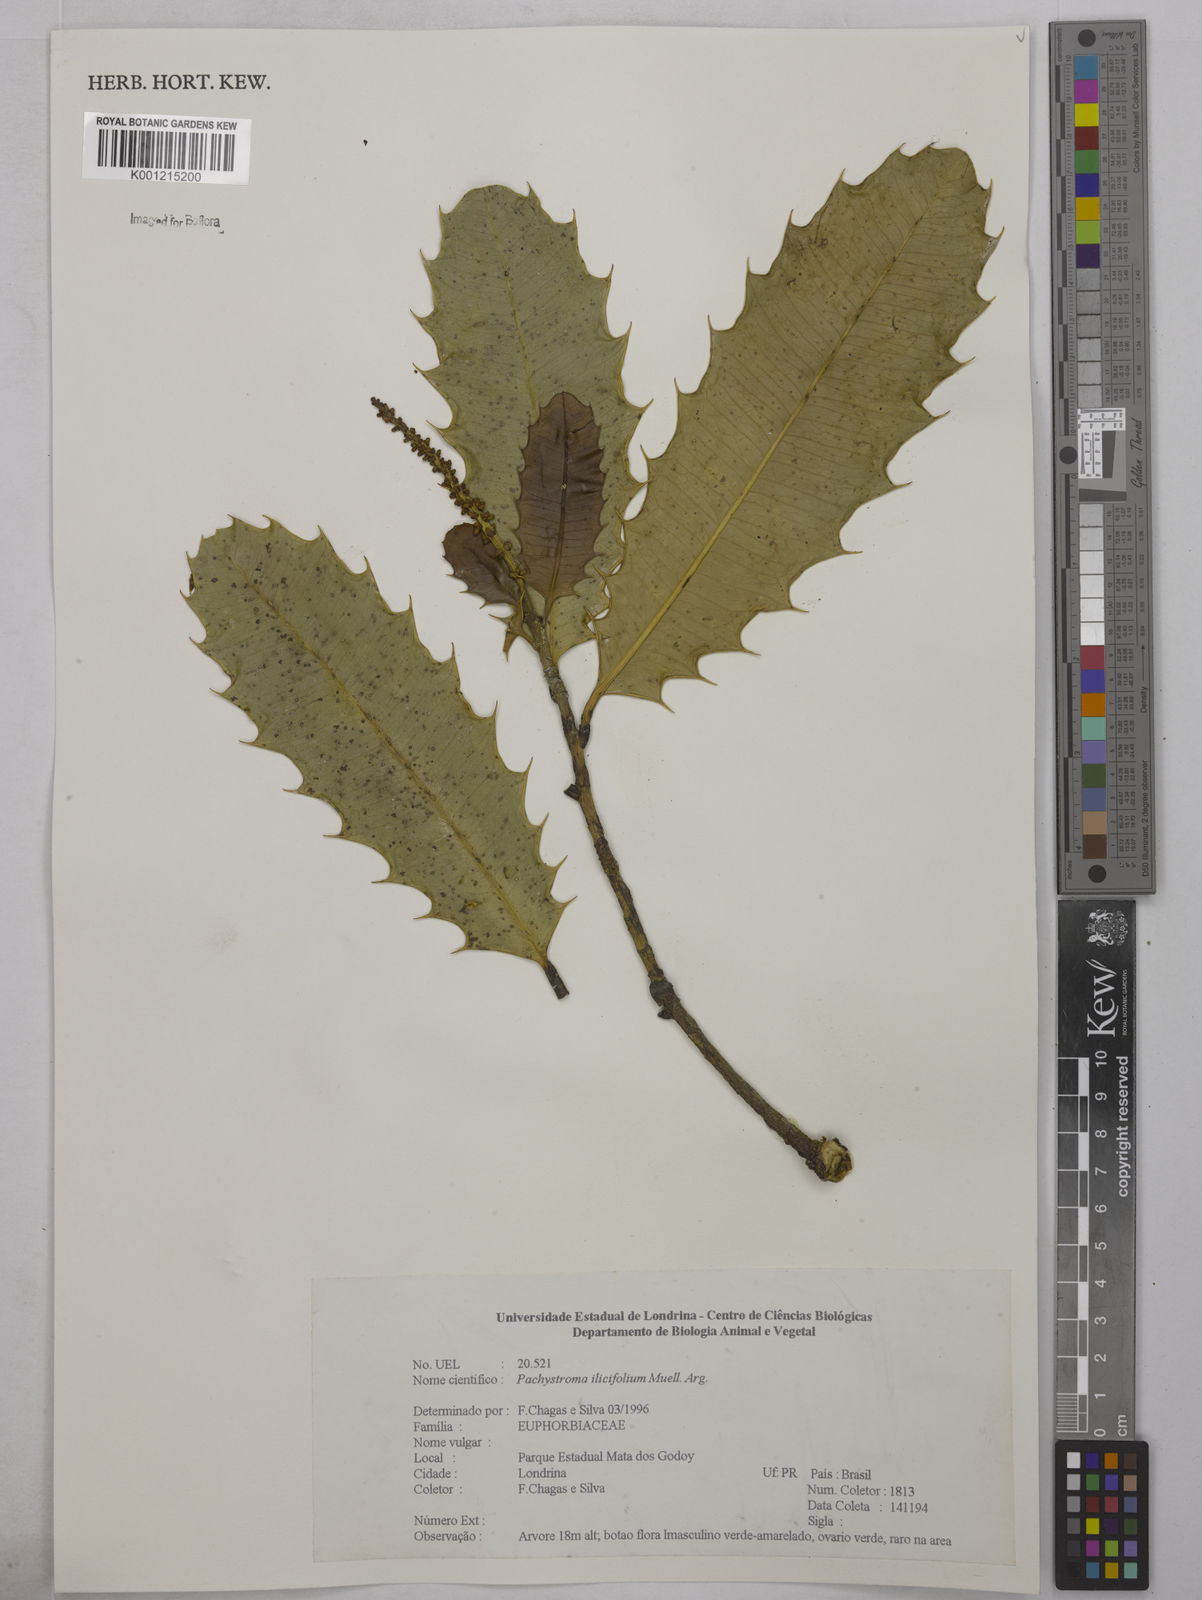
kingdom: Plantae
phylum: Tracheophyta
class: Magnoliopsida
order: Malpighiales
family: Euphorbiaceae
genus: Pachystroma
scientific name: Pachystroma longifolium
